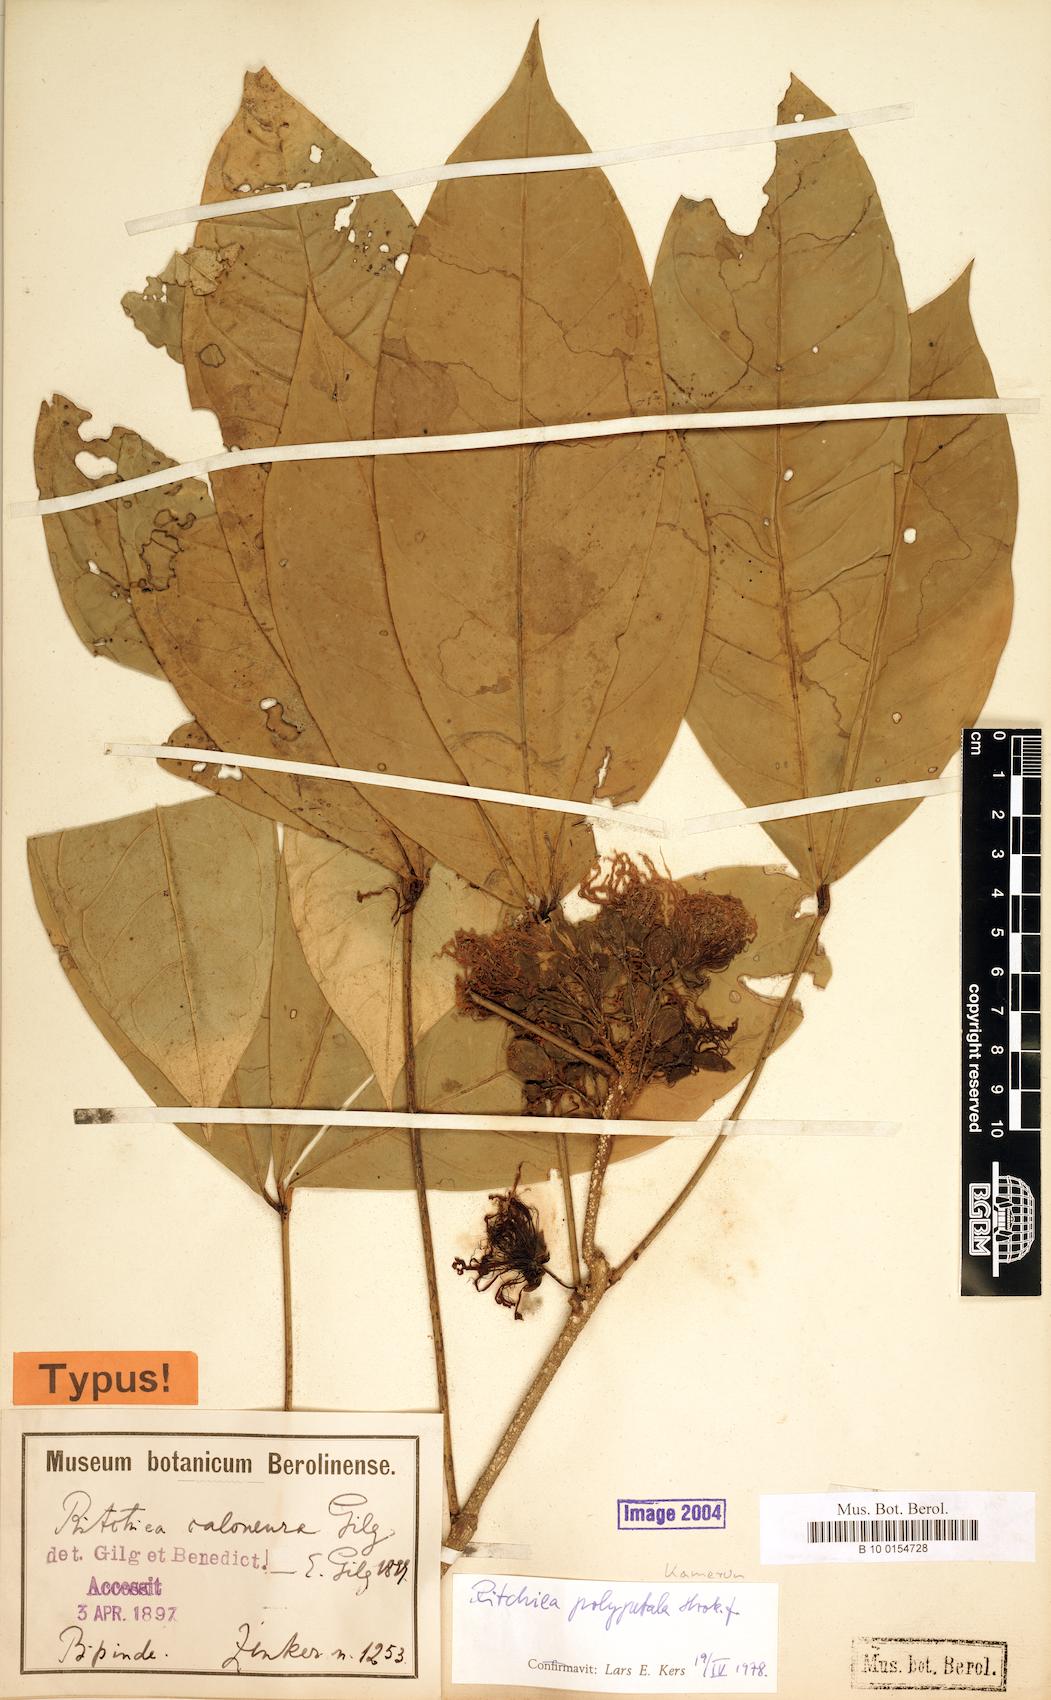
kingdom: Plantae
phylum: Tracheophyta
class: Magnoliopsida
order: Brassicales
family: Capparaceae
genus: Ritchiea
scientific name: Ritchiea erecta
